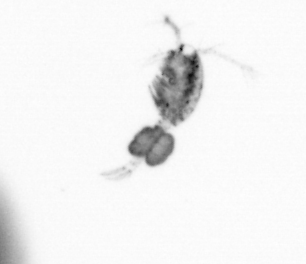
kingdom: Animalia
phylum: Arthropoda
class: Copepoda
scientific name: Copepoda
